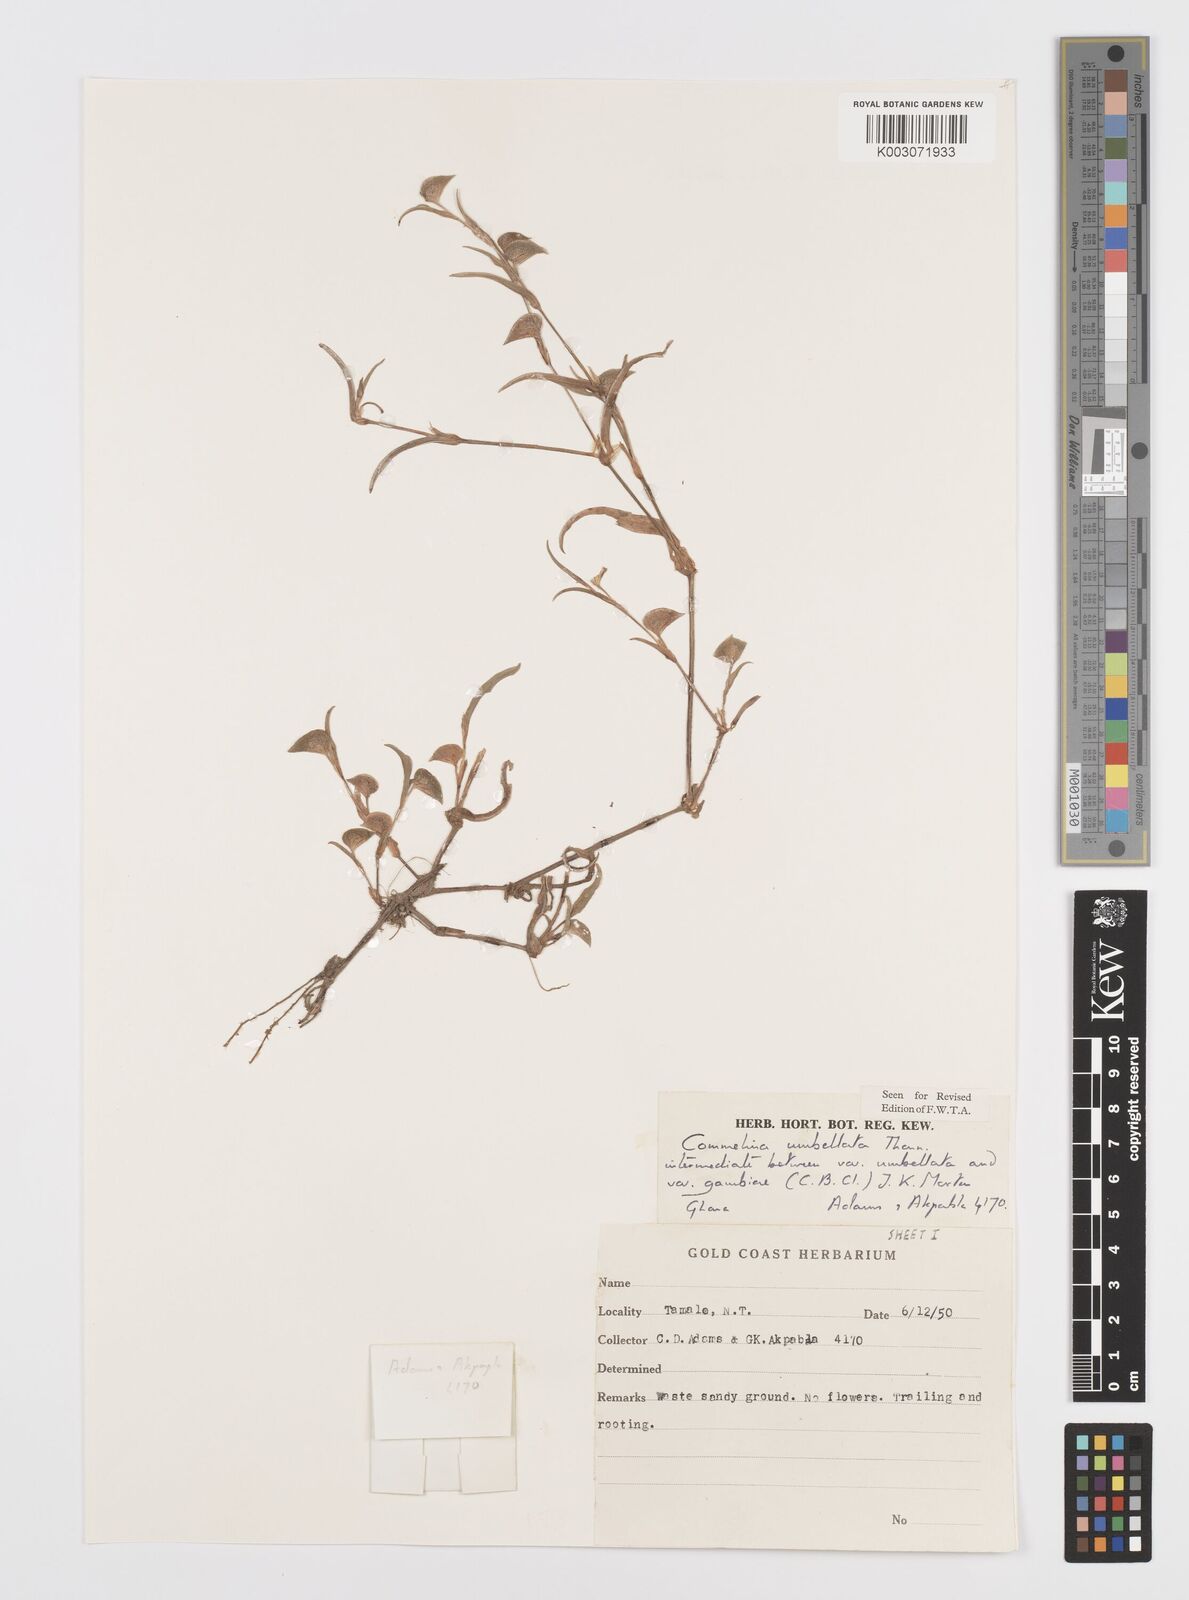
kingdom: Plantae
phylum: Tracheophyta
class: Liliopsida
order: Commelinales
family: Commelinaceae
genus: Commelina
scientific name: Commelina umbellata
